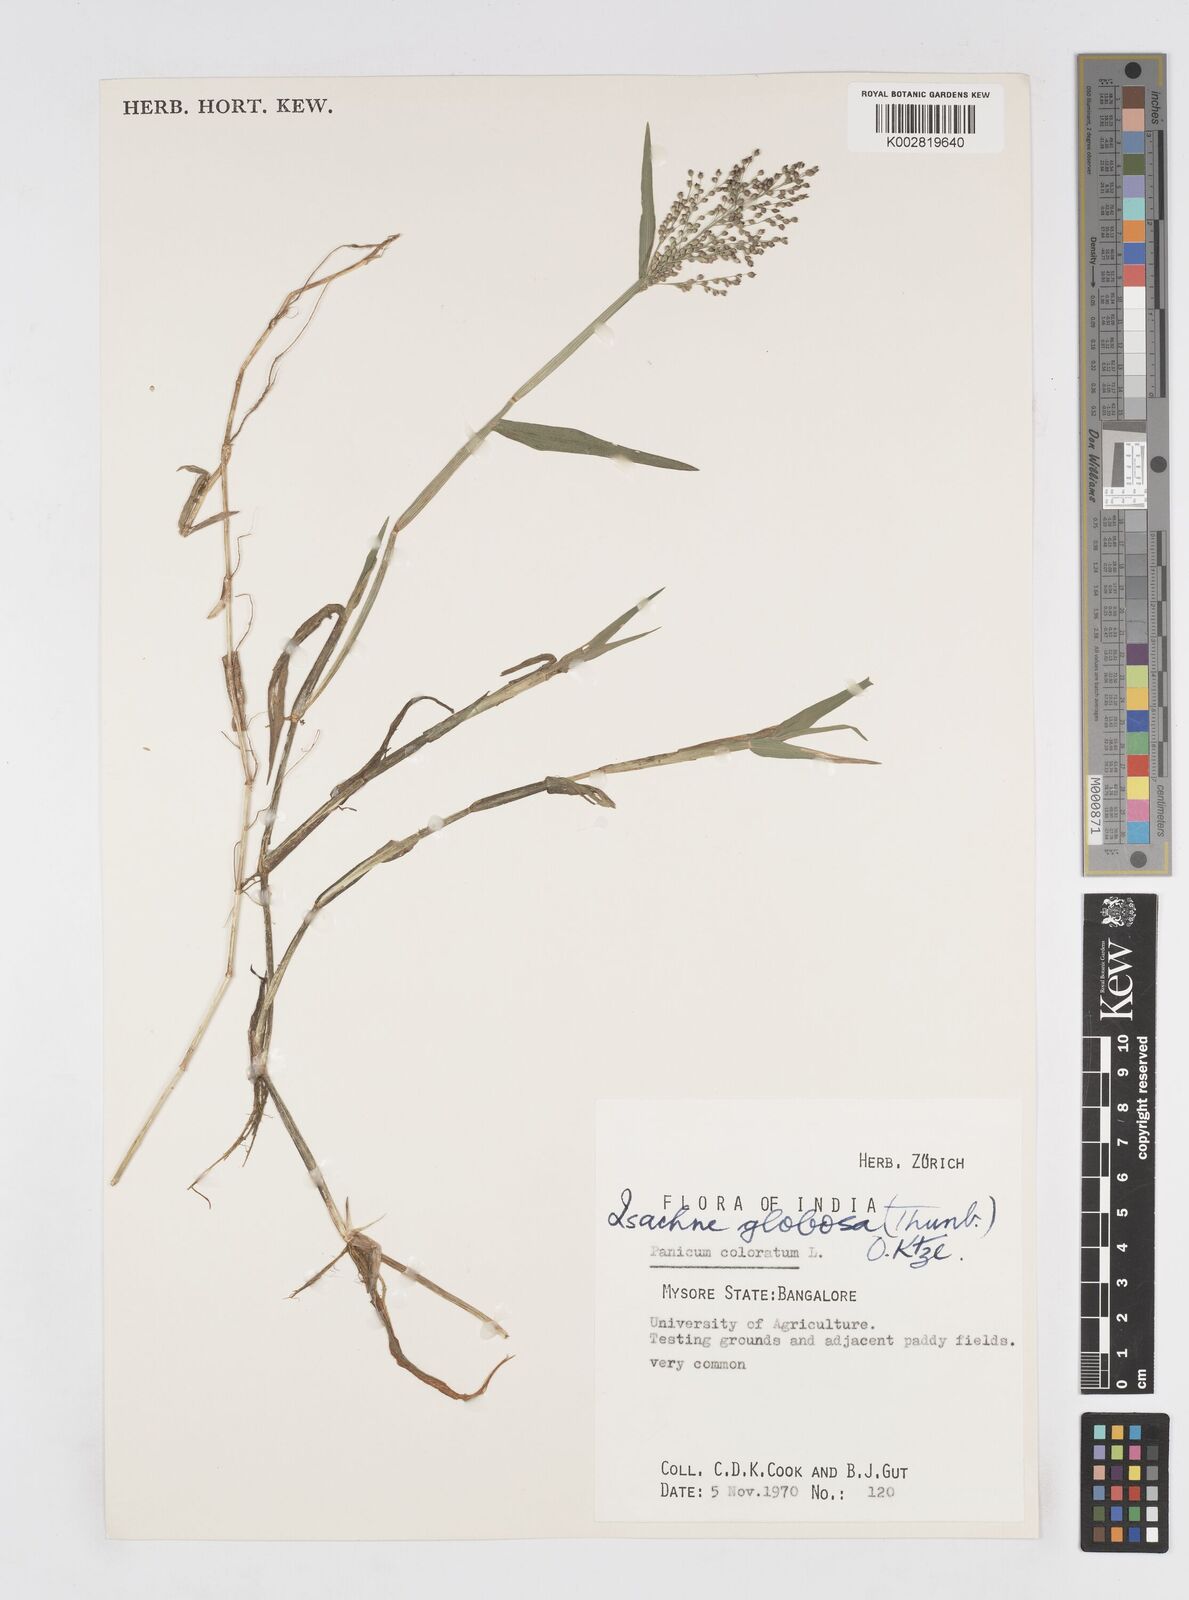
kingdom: Plantae
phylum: Tracheophyta
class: Liliopsida
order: Poales
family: Poaceae
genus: Isachne
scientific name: Isachne globosa
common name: Swamp millet
